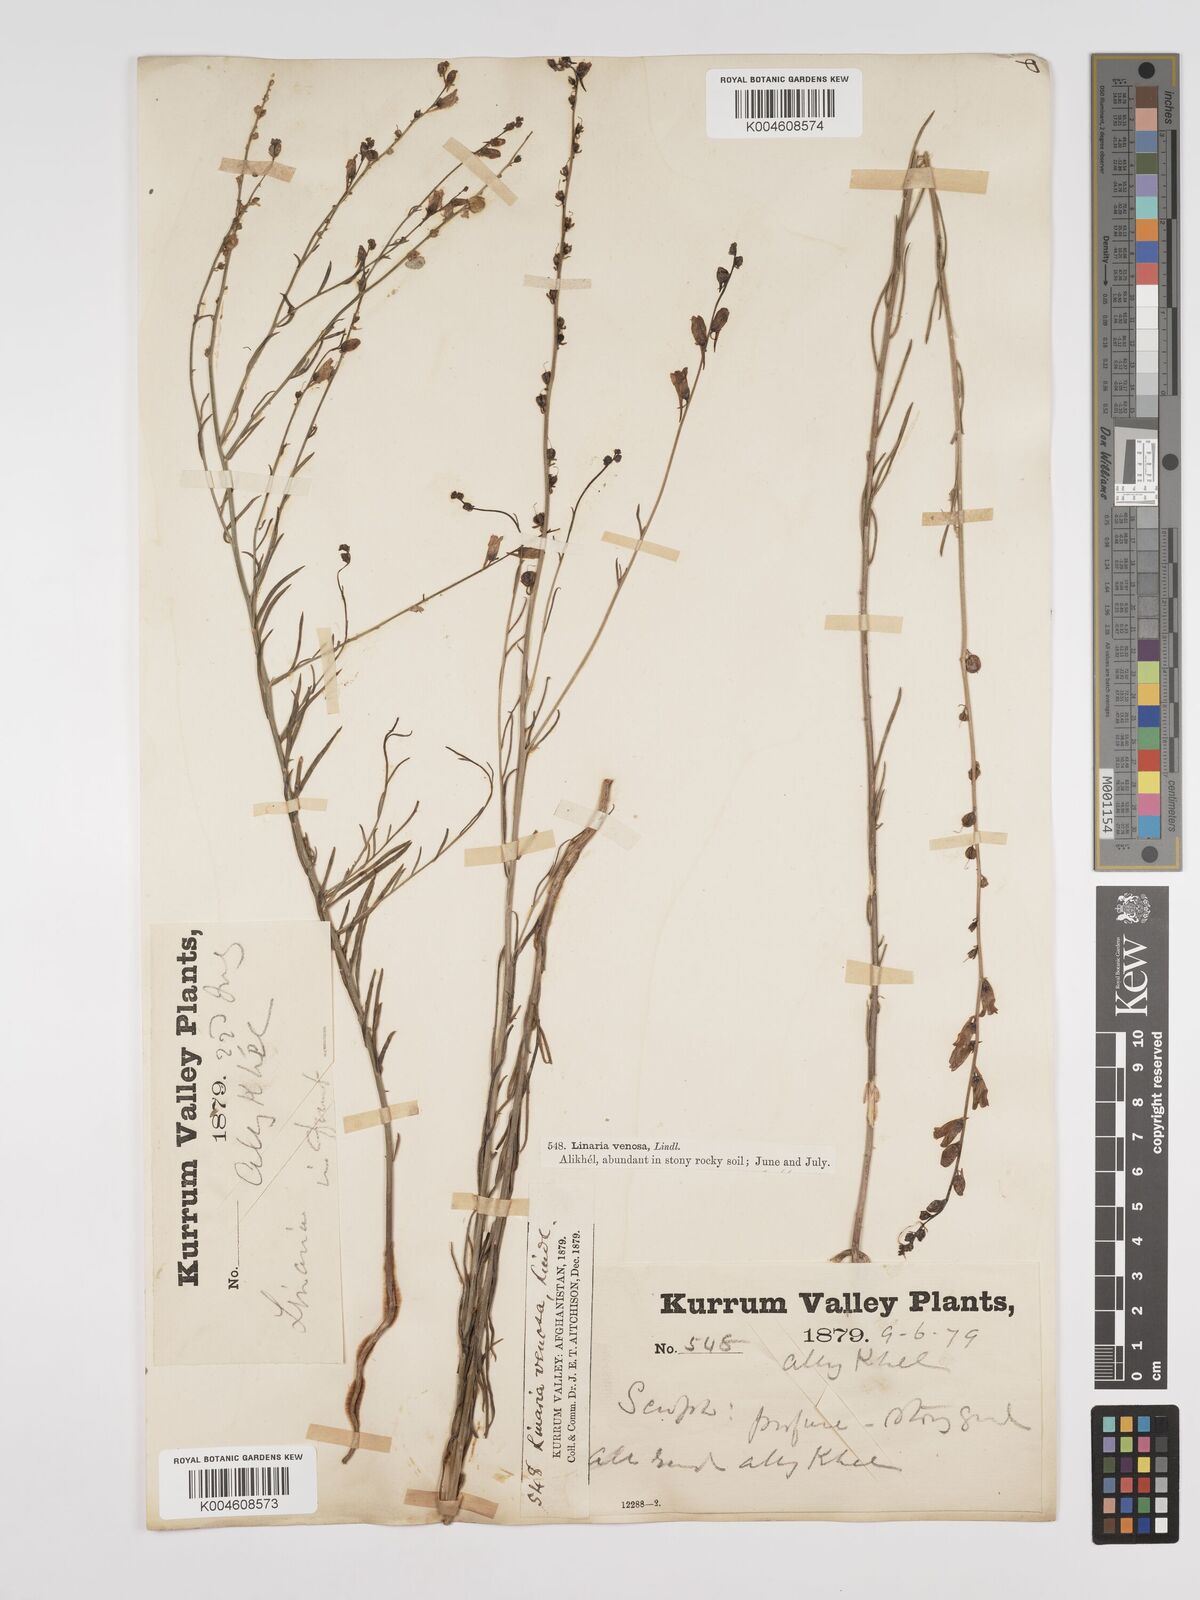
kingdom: Plantae
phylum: Tracheophyta
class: Magnoliopsida
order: Lamiales
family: Plantaginaceae
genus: Kickxia
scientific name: Kickxia
